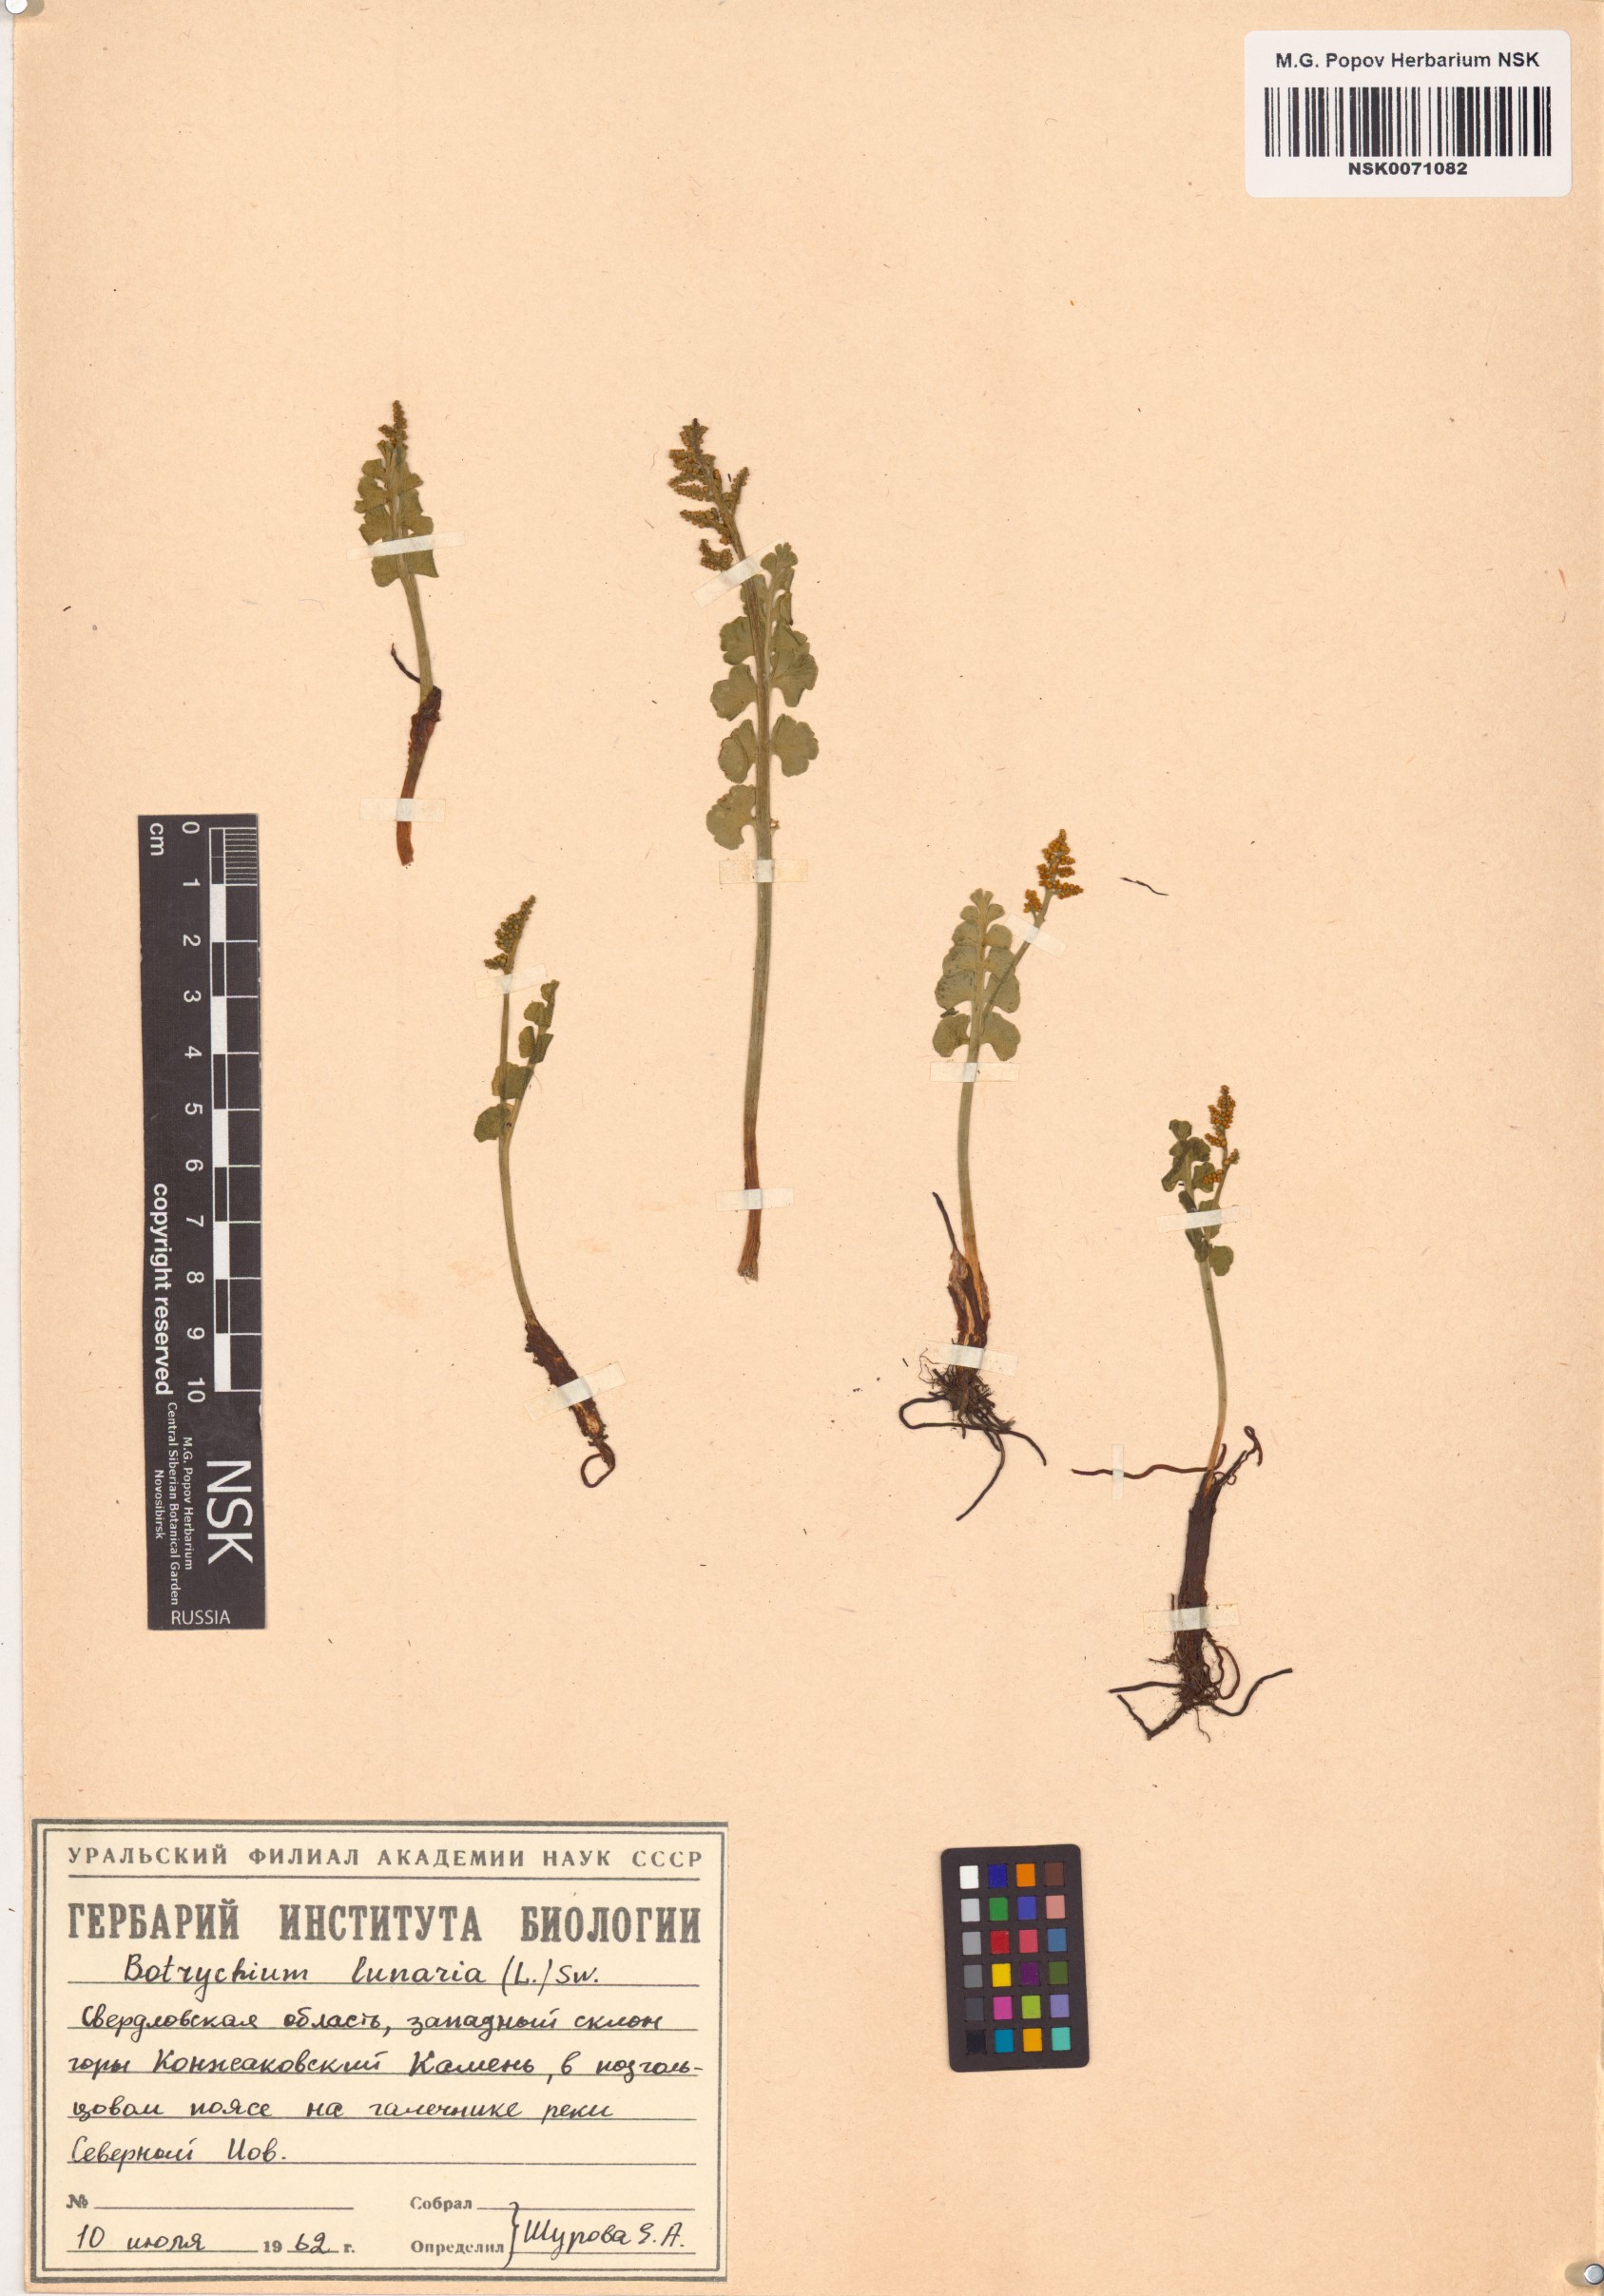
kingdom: Plantae
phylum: Tracheophyta
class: Polypodiopsida
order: Ophioglossales
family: Ophioglossaceae
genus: Botrychium
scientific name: Botrychium lunaria
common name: Moonwort
